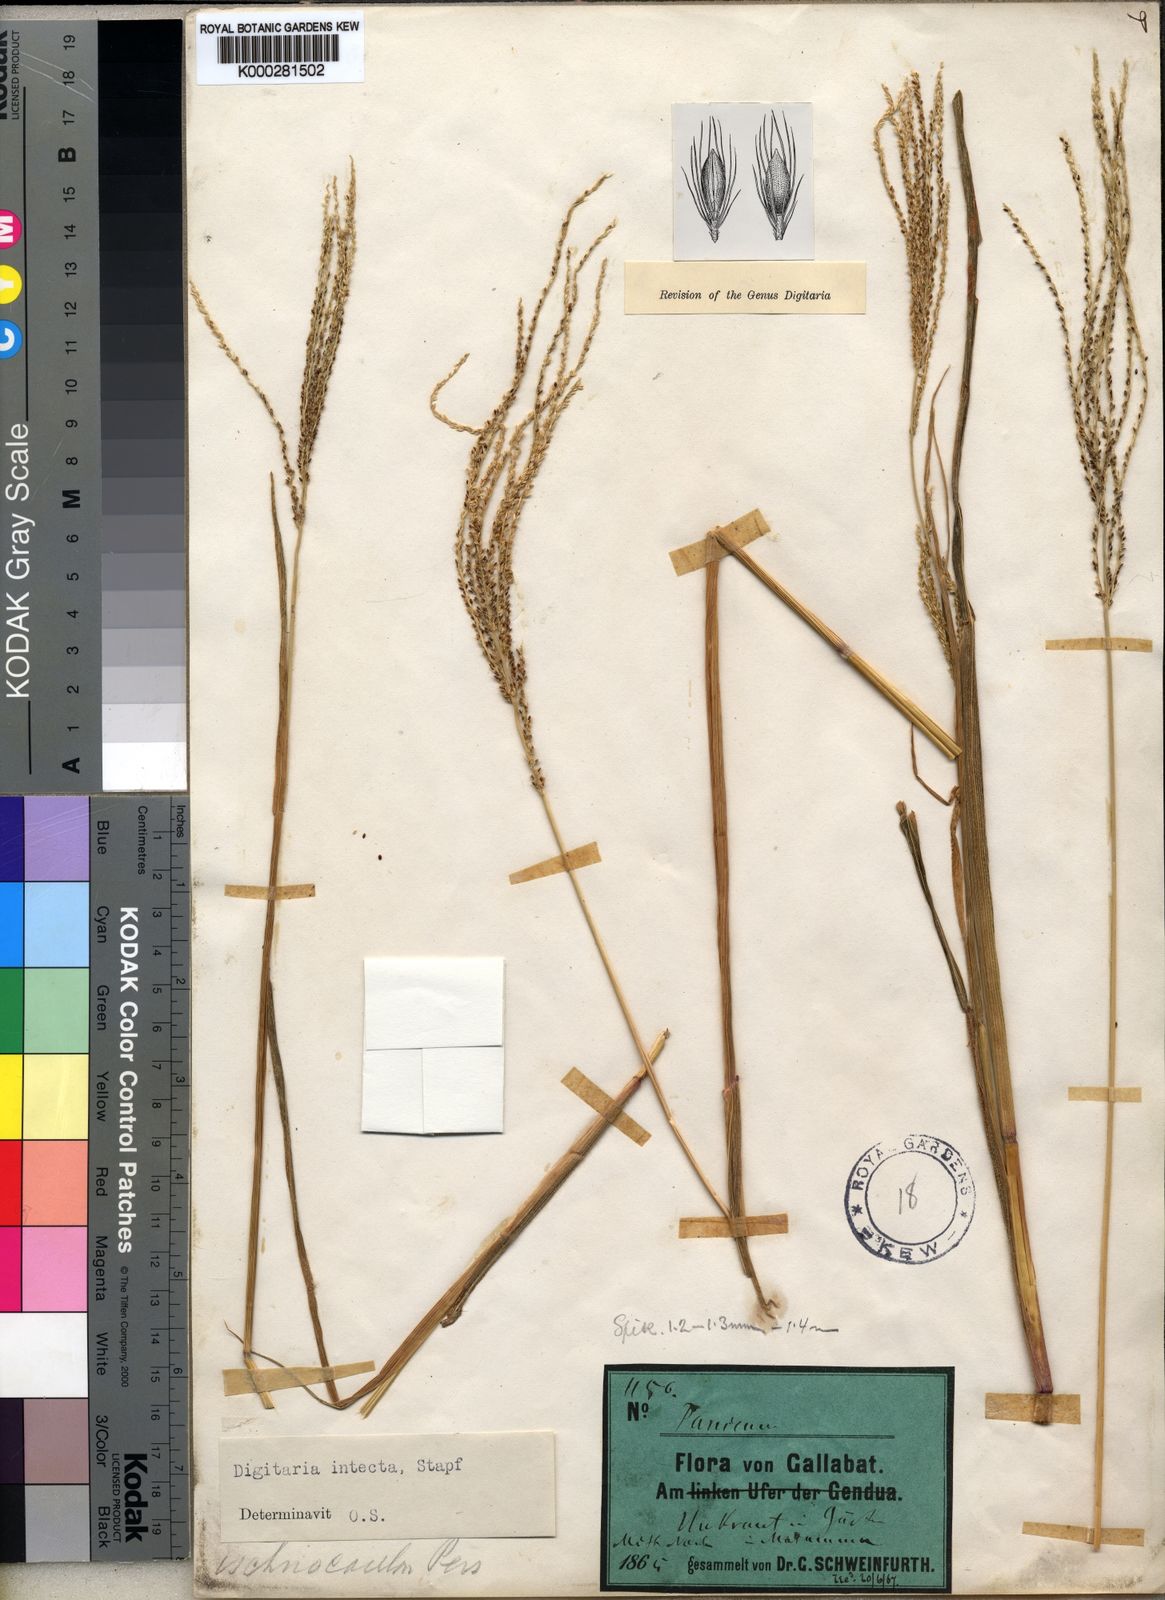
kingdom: Plantae
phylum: Tracheophyta
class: Liliopsida
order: Poales
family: Poaceae
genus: Digitaria
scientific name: Digitaria intecta
